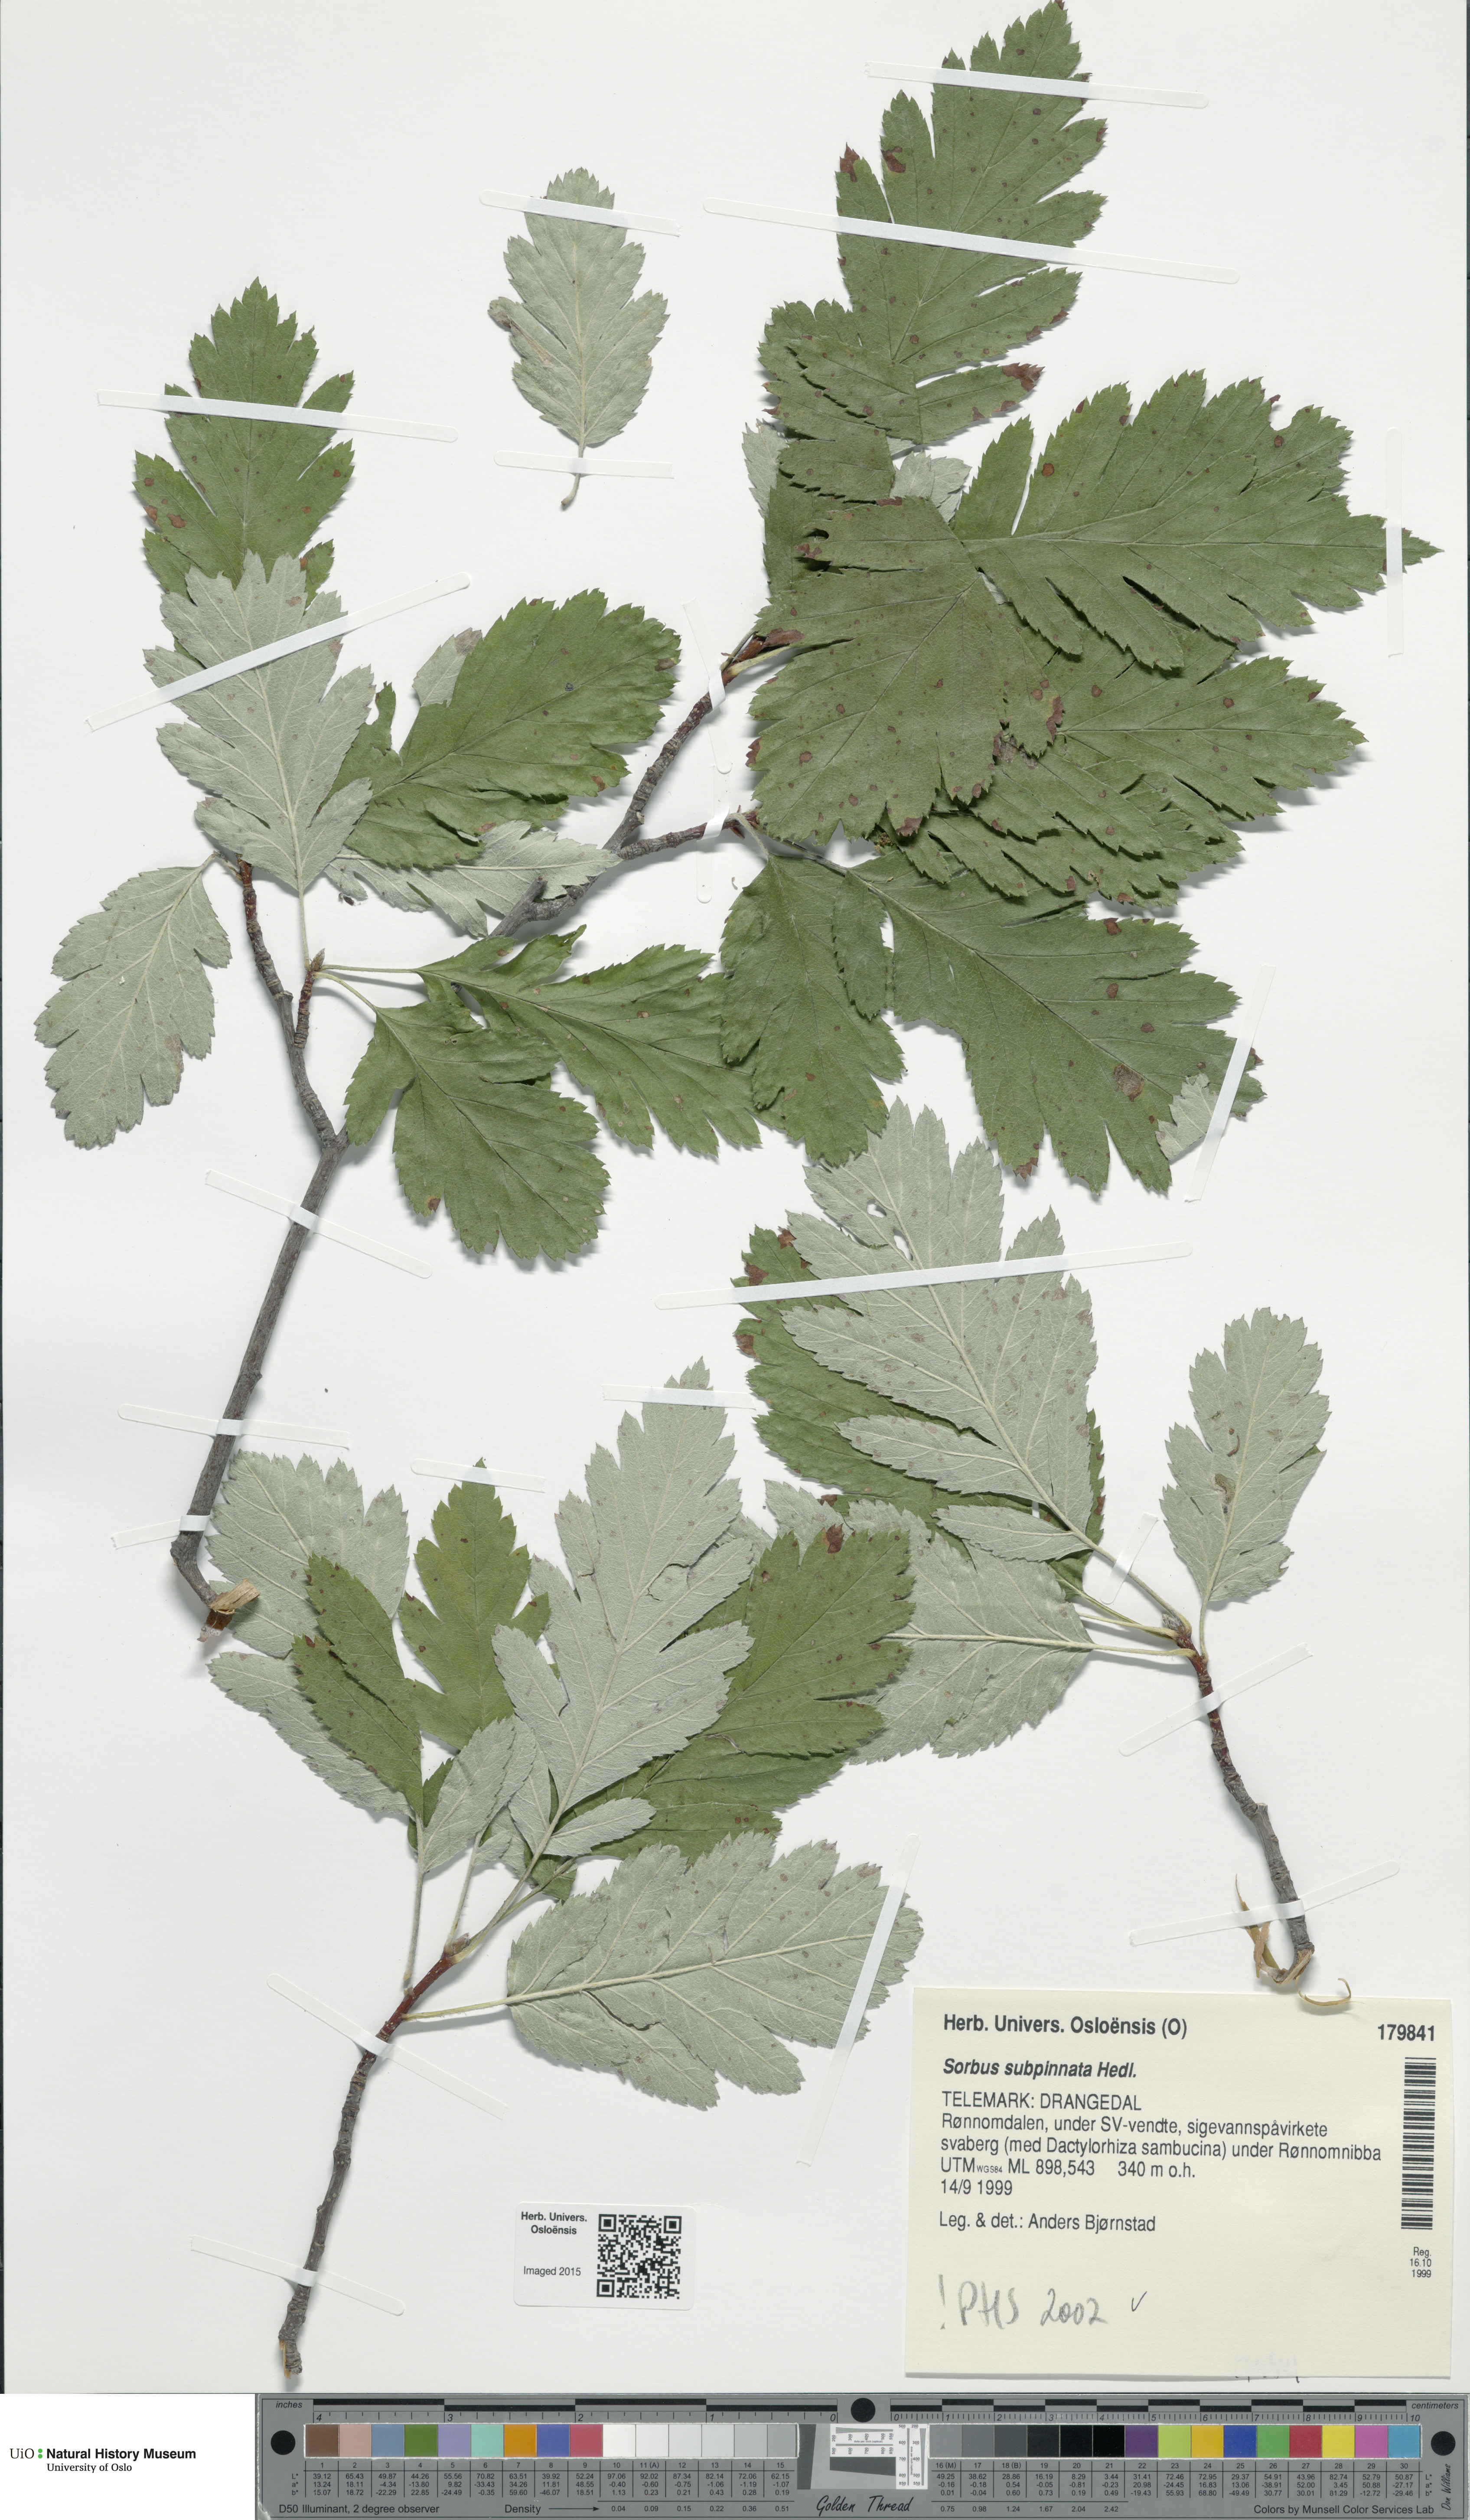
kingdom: Plantae
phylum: Tracheophyta
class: Magnoliopsida
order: Rosales
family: Rosaceae
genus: Hedlundia
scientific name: Hedlundia subpinnata
